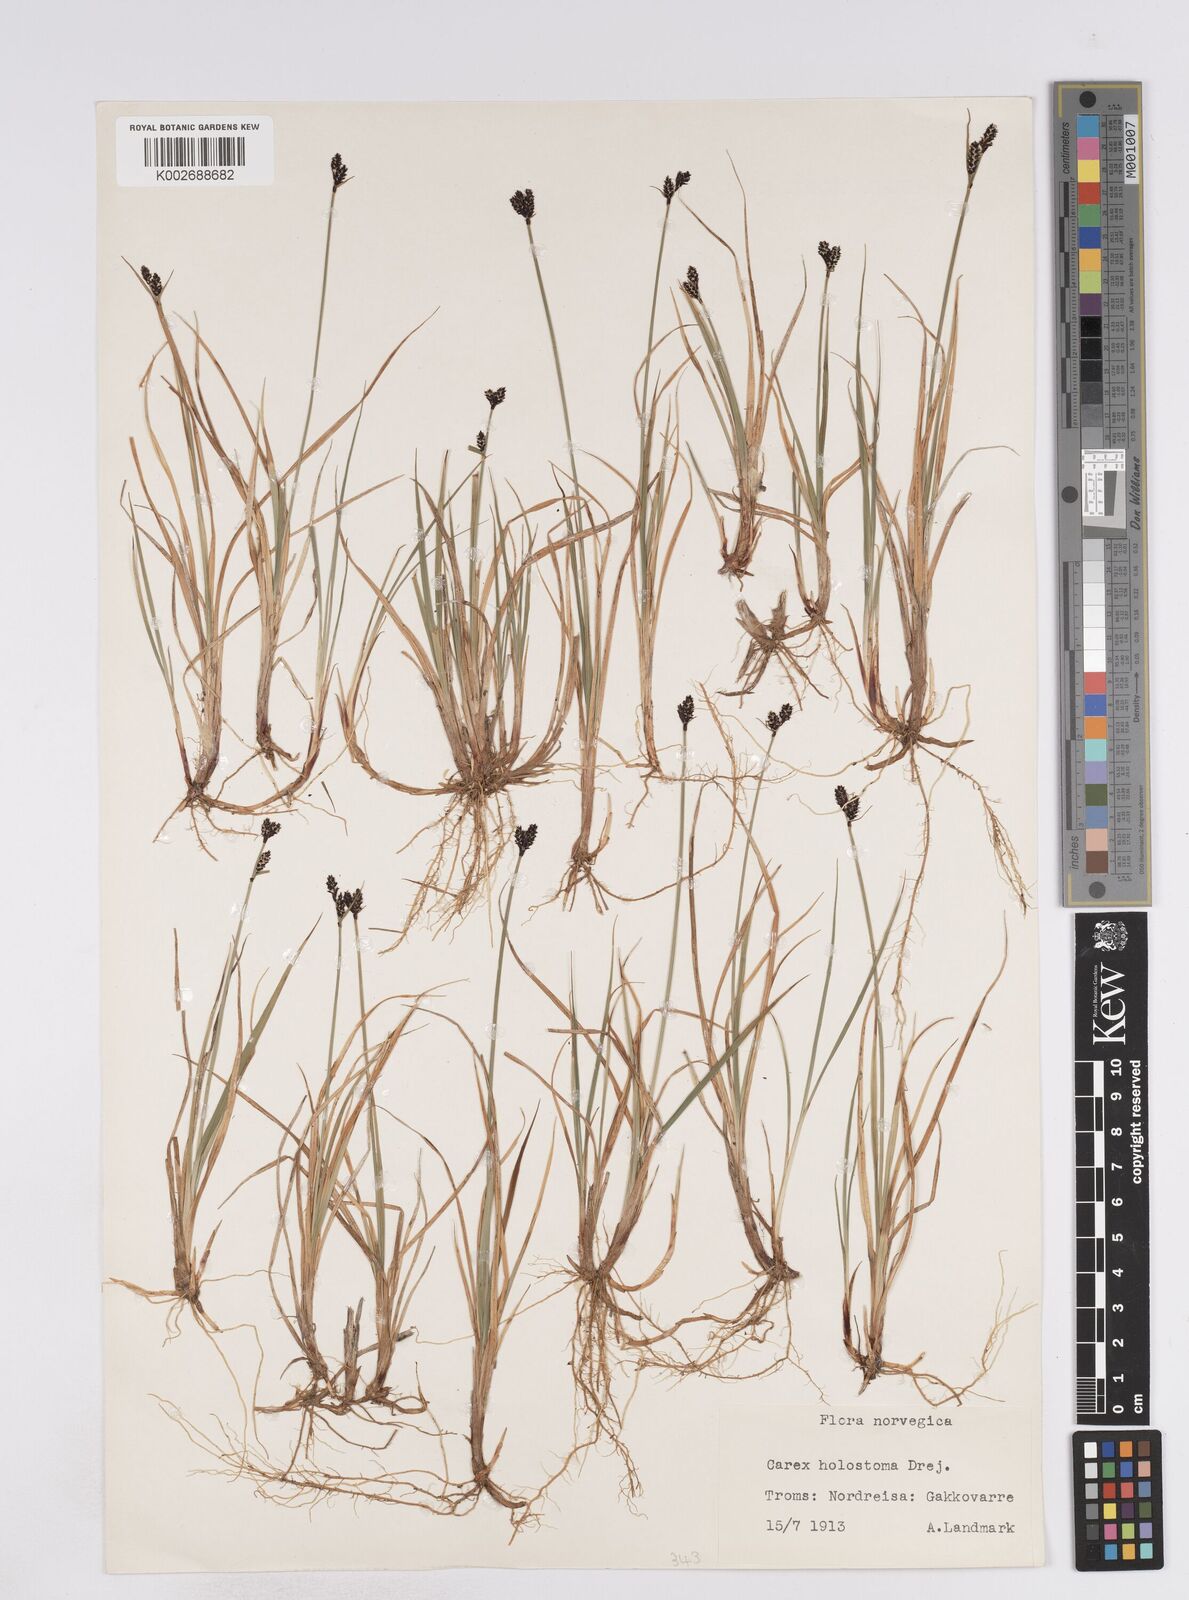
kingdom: Plantae
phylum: Tracheophyta
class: Liliopsida
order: Poales
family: Cyperaceae
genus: Carex
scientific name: Carex holostoma
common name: Arctic marsh sedge
